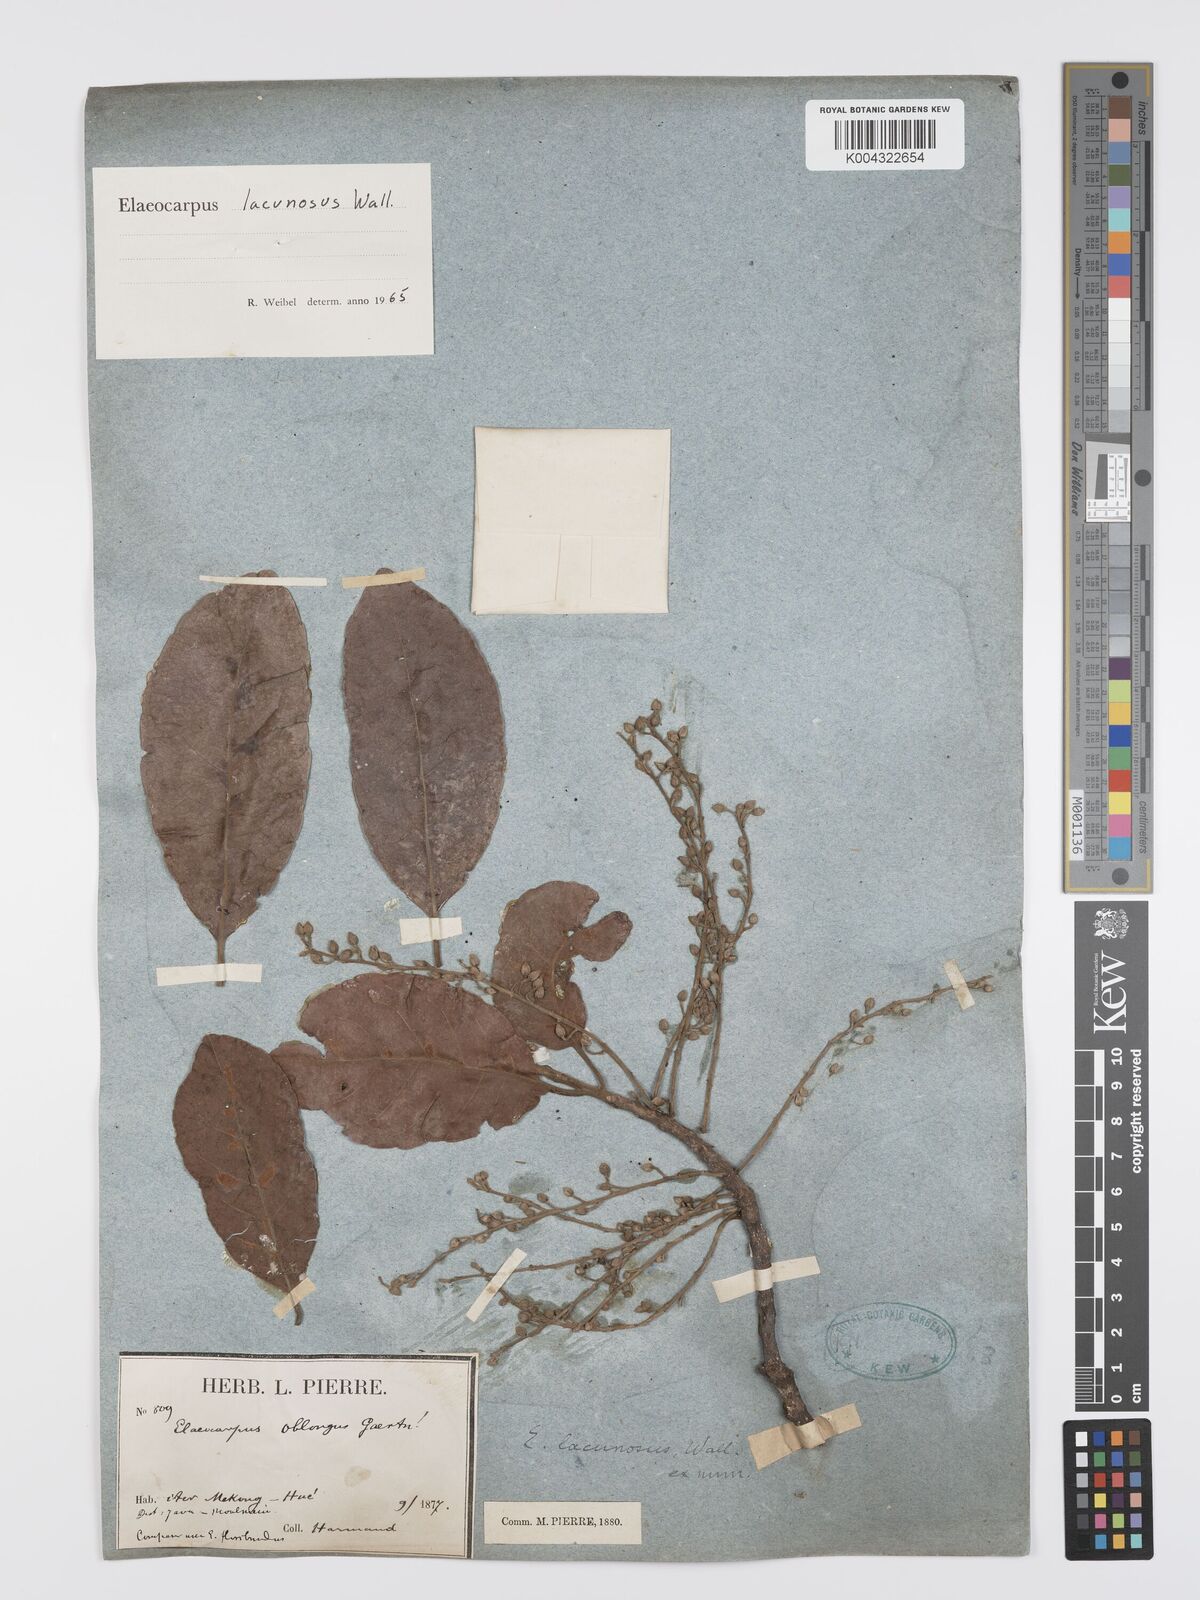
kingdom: Plantae
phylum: Tracheophyta
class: Magnoliopsida
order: Oxalidales
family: Elaeocarpaceae
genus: Elaeocarpus
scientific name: Elaeocarpus lanceifolius
